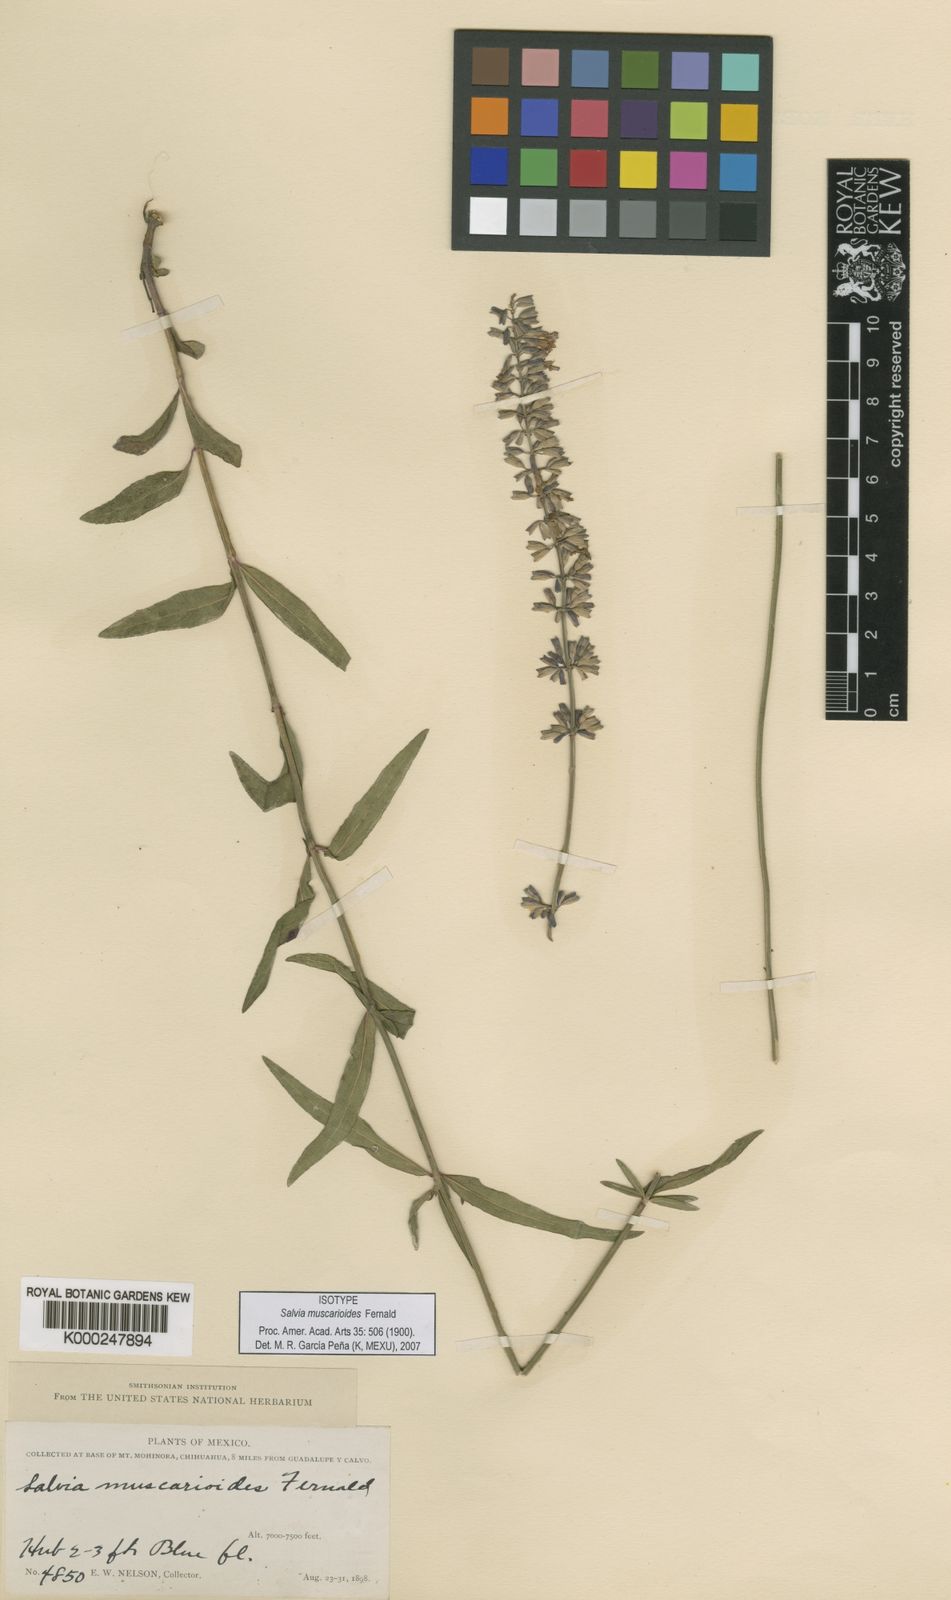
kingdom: Plantae
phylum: Tracheophyta
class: Magnoliopsida
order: Lamiales
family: Lamiaceae
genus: Salvia
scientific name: Salvia muscarioides
